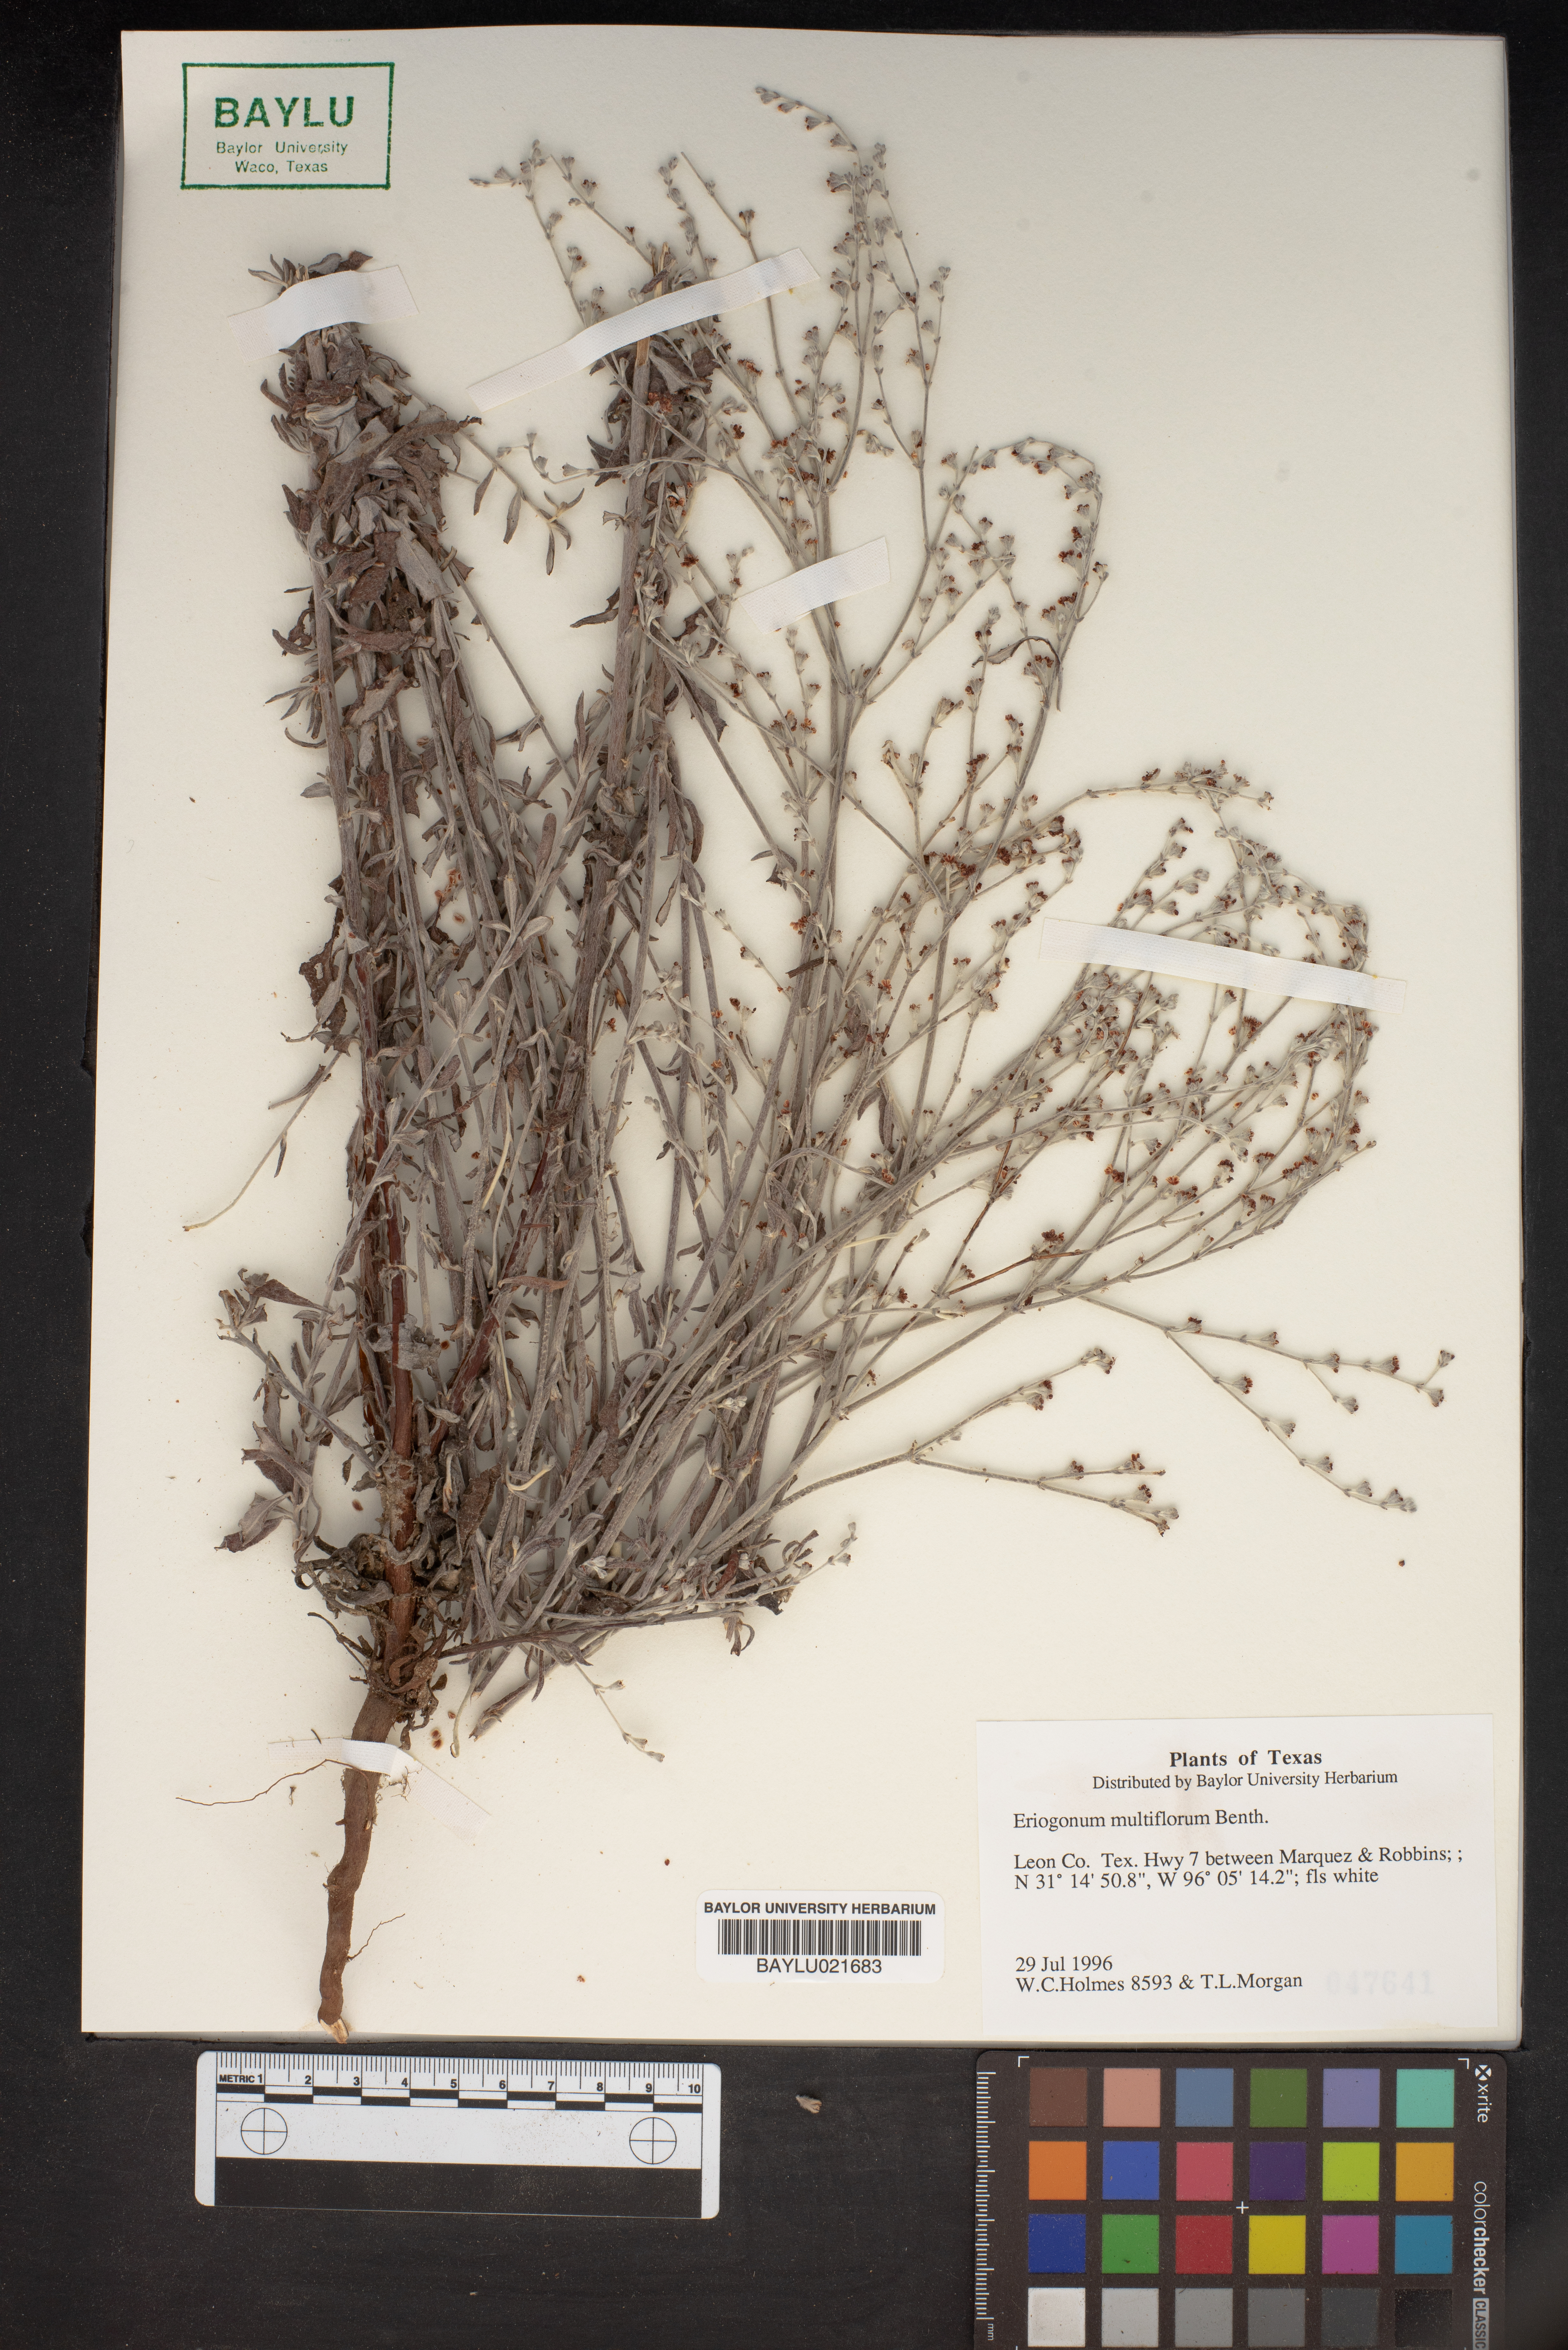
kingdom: Plantae
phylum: Tracheophyta
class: Magnoliopsida
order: Caryophyllales
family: Polygonaceae
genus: Eriogonum
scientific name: Eriogonum multiflorum
